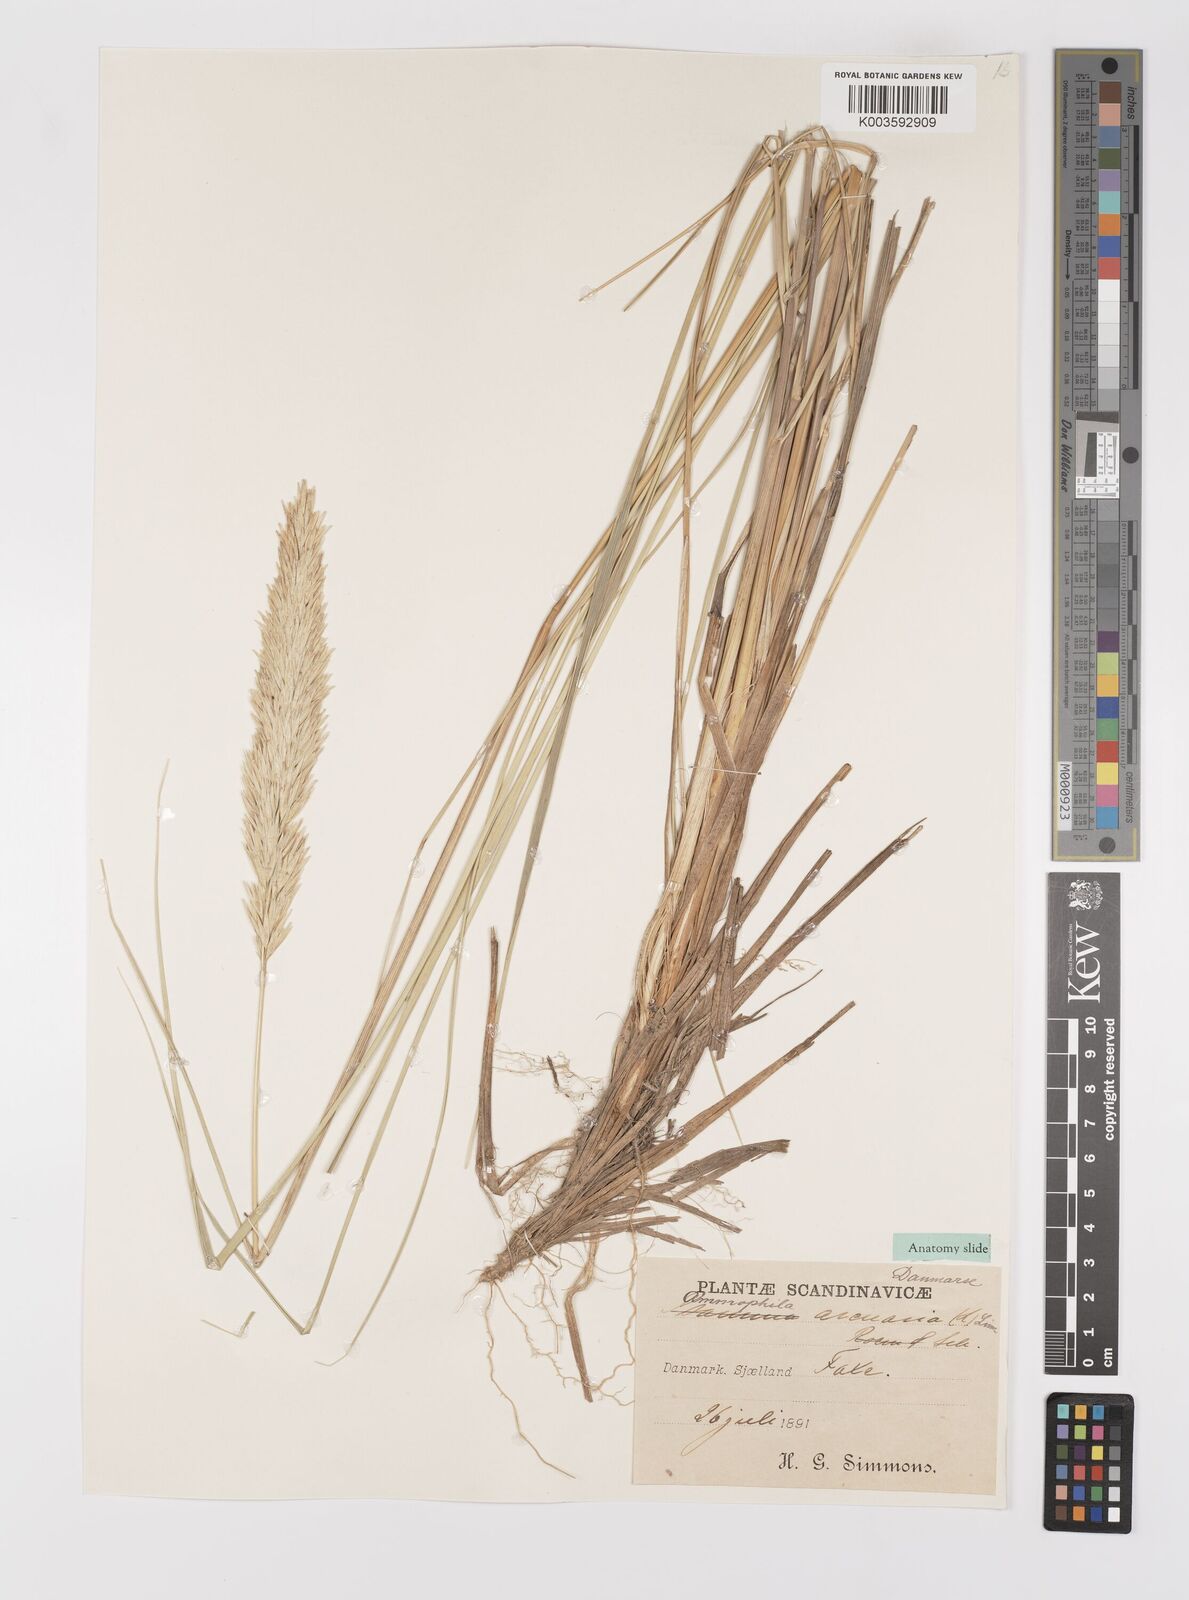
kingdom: Plantae
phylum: Tracheophyta
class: Liliopsida
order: Poales
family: Poaceae
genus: Calamagrostis
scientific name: Calamagrostis arenaria
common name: European beachgrass
